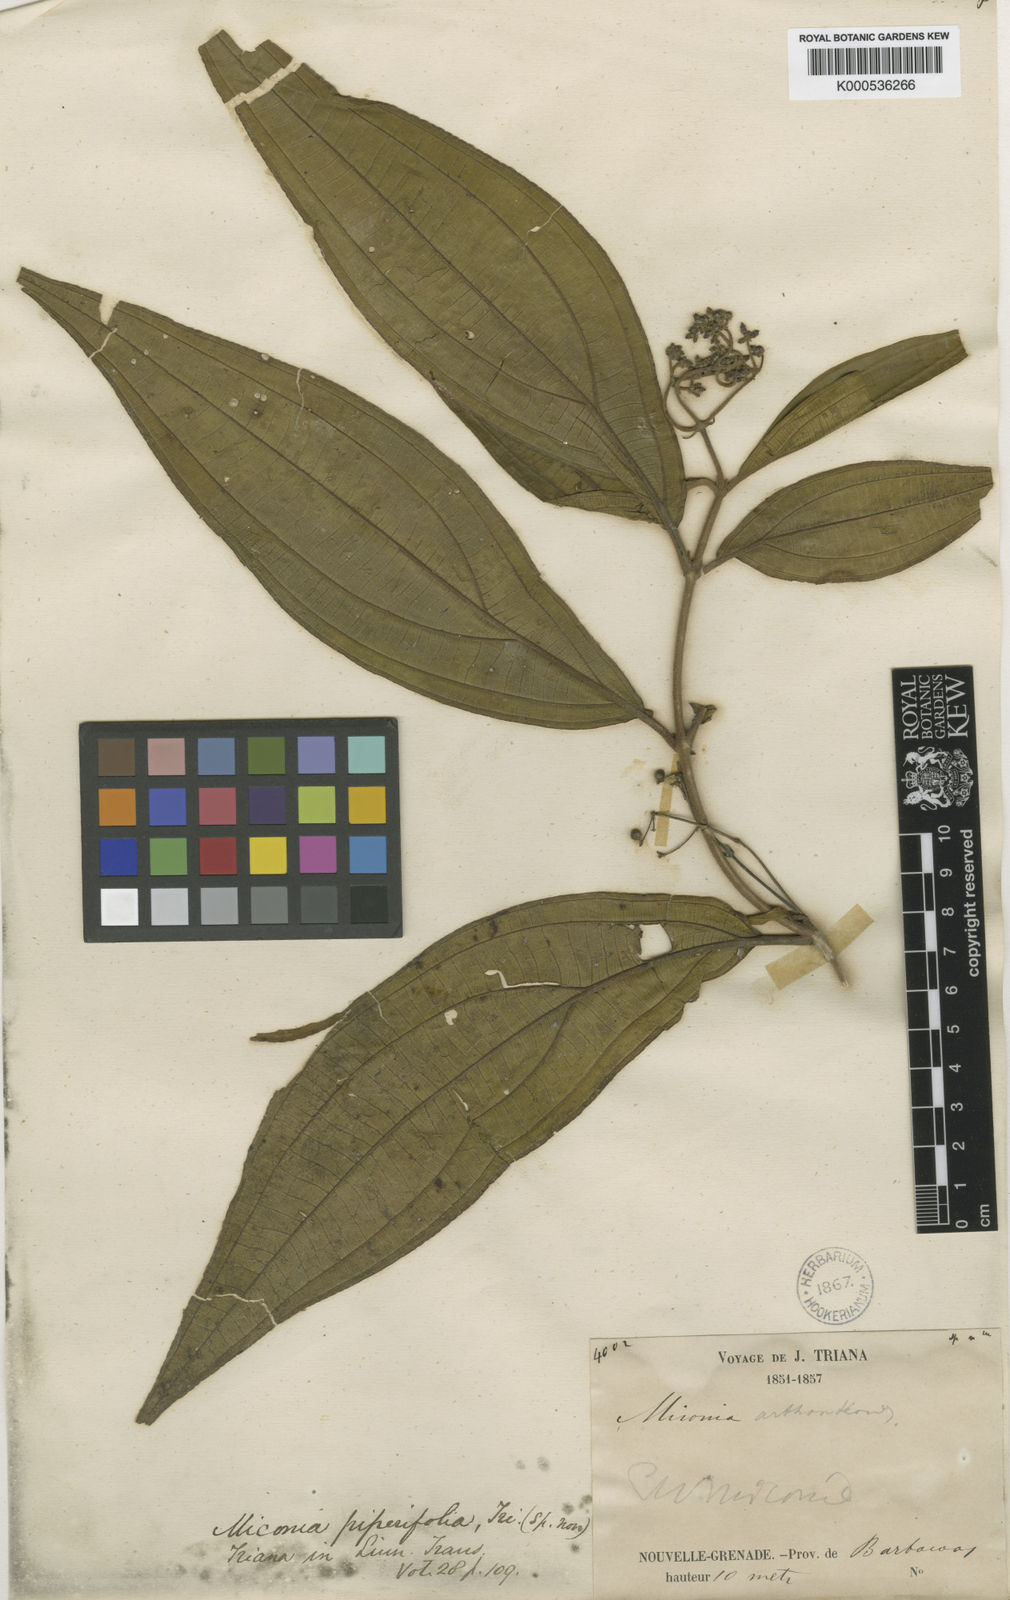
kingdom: Plantae
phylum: Tracheophyta
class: Magnoliopsida
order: Myrtales
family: Melastomataceae
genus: Miconia
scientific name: Miconia piperifolia
